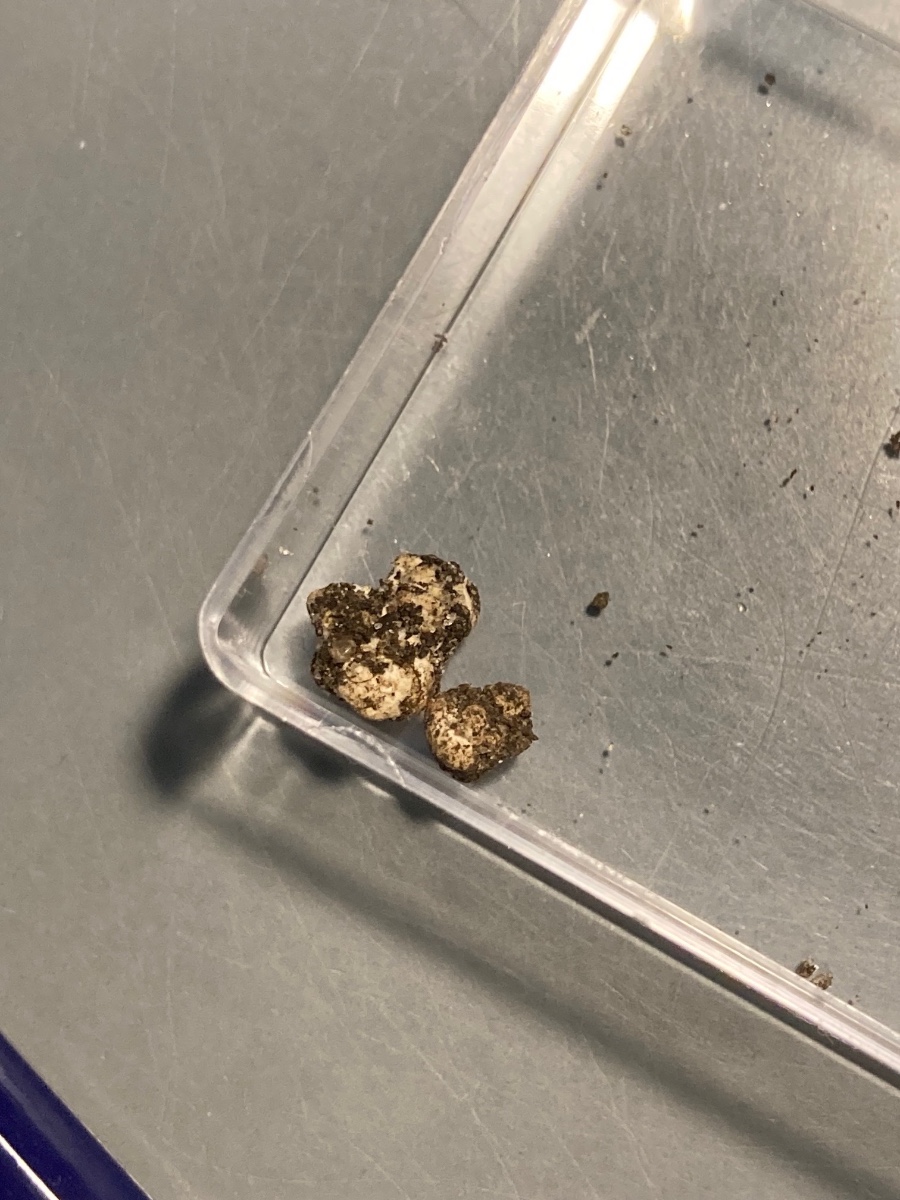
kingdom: Fungi
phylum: Glomeromycota
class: Glomeromycetes
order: Glomerales
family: Glomeraceae
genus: Glomus
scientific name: Glomus microcarpum
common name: Small-spored pea truffle
